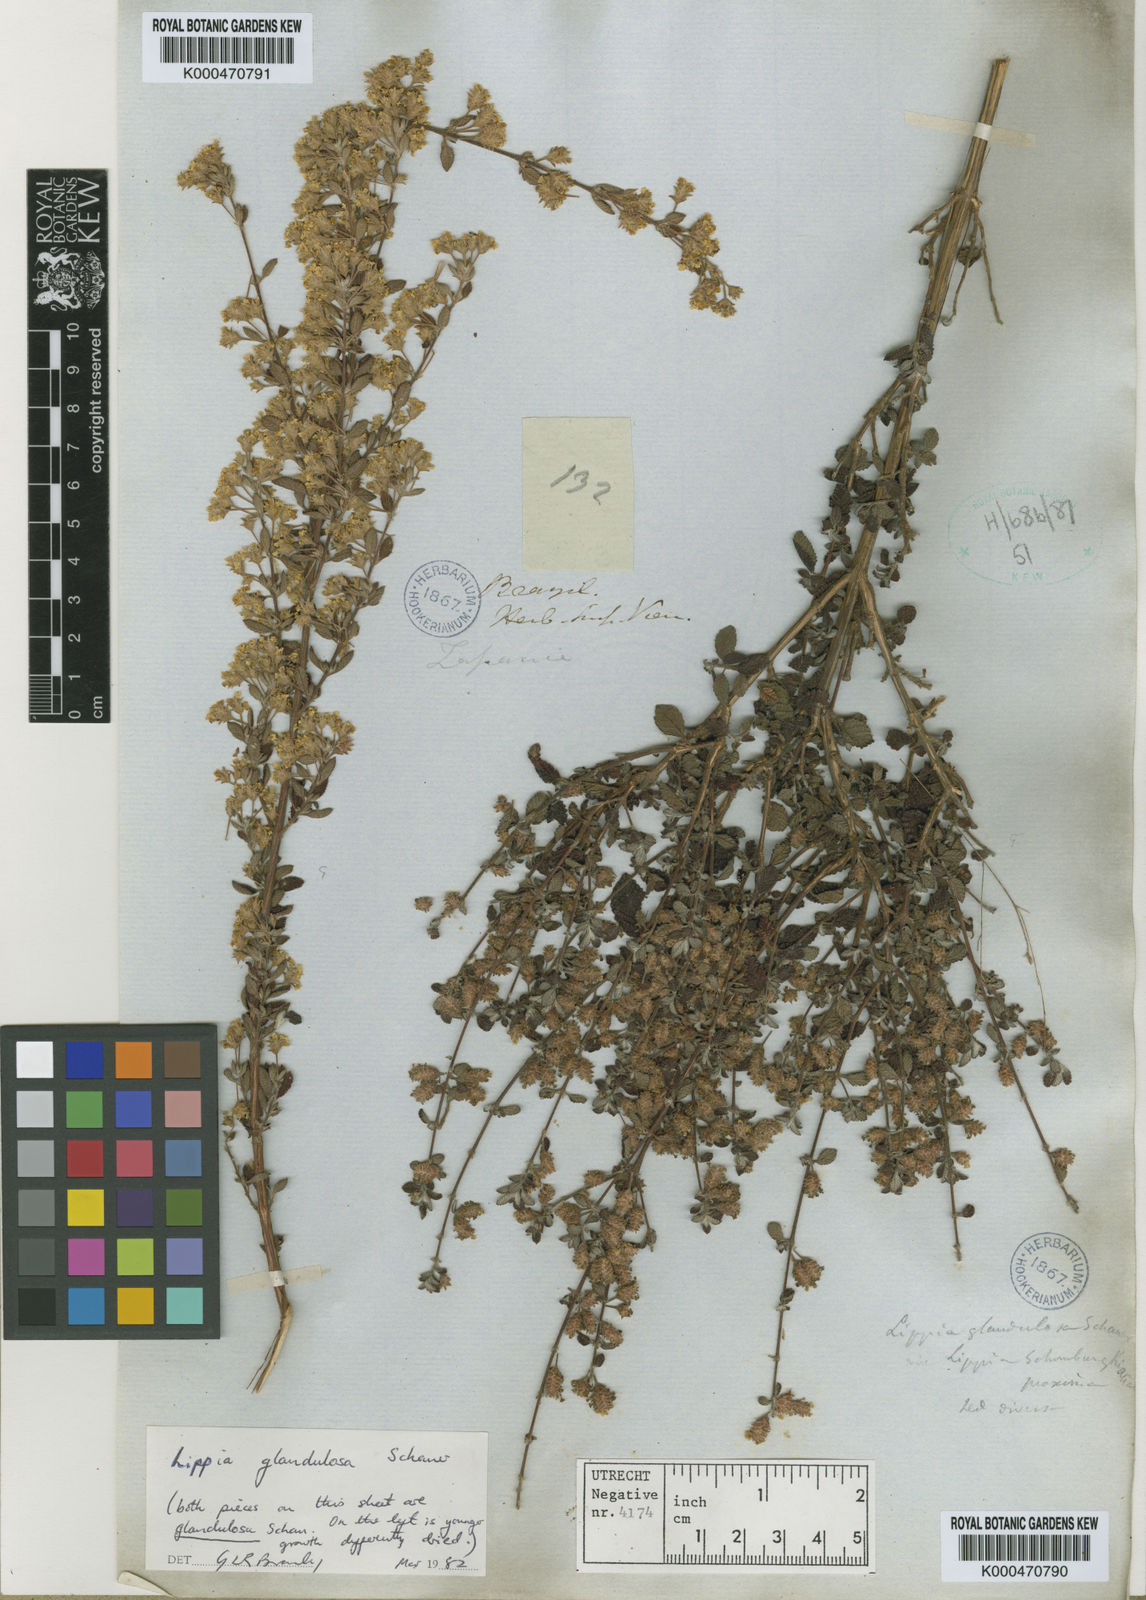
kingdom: Plantae
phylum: Tracheophyta
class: Magnoliopsida
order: Lamiales
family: Verbenaceae
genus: Lippia
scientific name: Lippia origanoides
